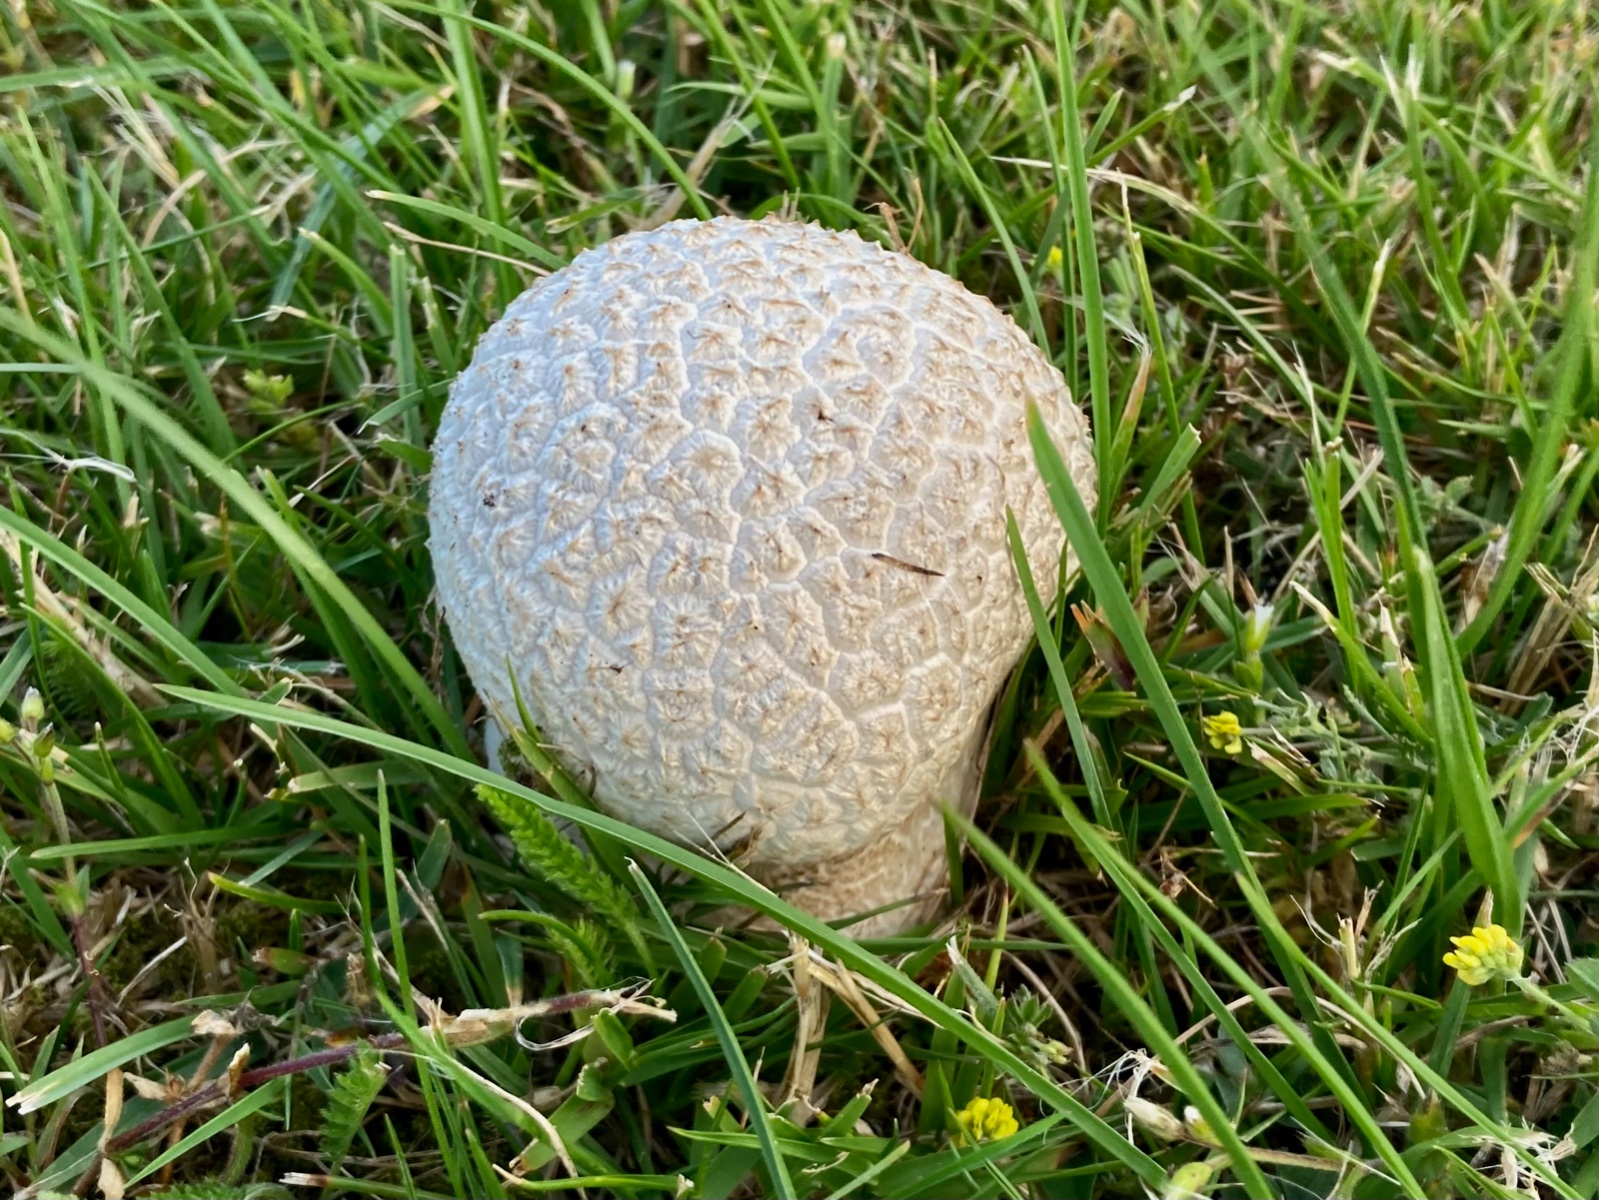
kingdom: Fungi
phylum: Basidiomycota
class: Agaricomycetes
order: Agaricales
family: Lycoperdaceae
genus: Bovistella
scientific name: Bovistella utriformis
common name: skællet støvbold
